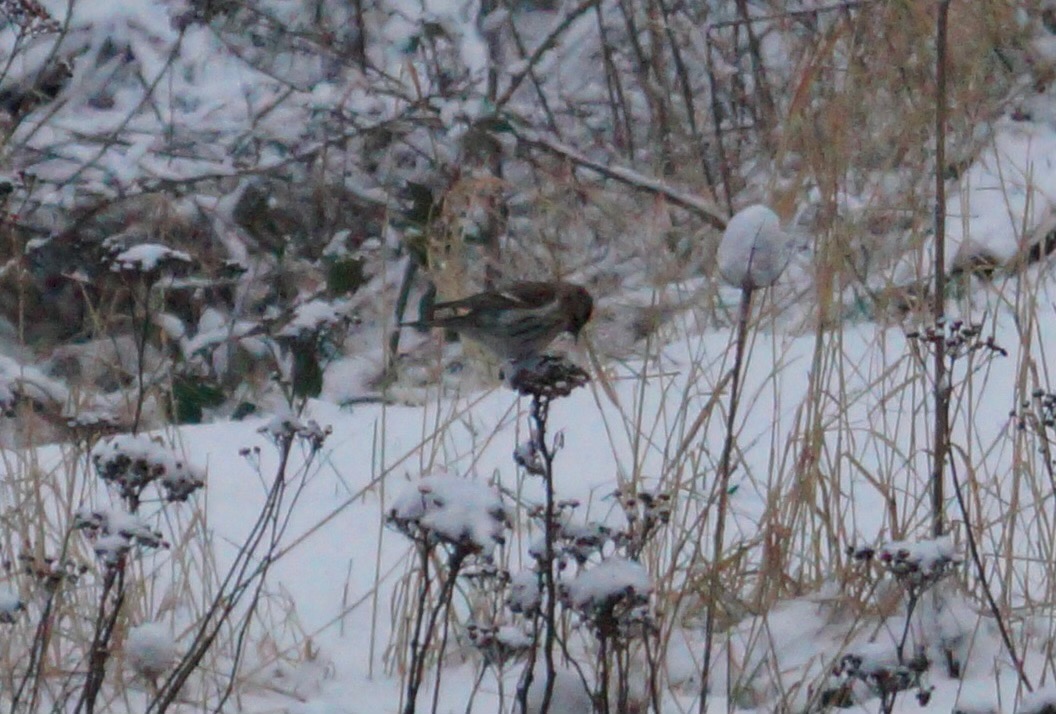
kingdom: Animalia
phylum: Chordata
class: Aves
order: Passeriformes
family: Fringillidae
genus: Acanthis
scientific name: Acanthis flammea
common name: Nordlig gråsisken
